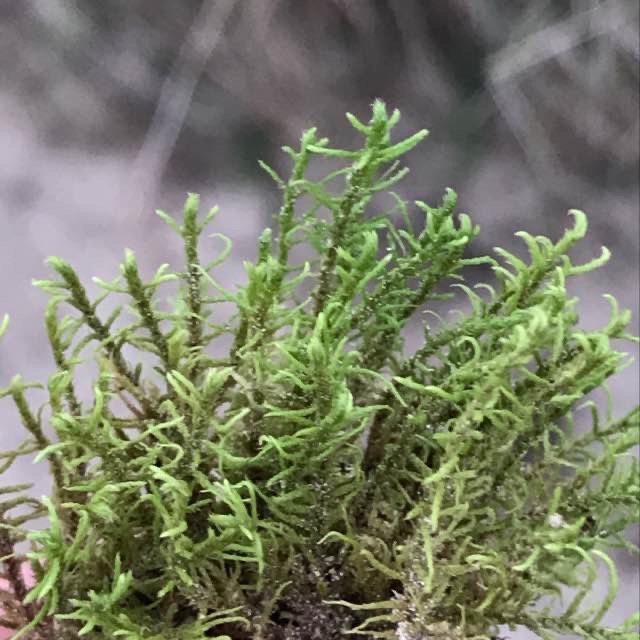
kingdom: Plantae
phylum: Bryophyta
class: Bryopsida
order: Hypnales
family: Thuidiaceae
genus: Abietinella
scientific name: Abietinella abietina
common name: Bakke-granmos
